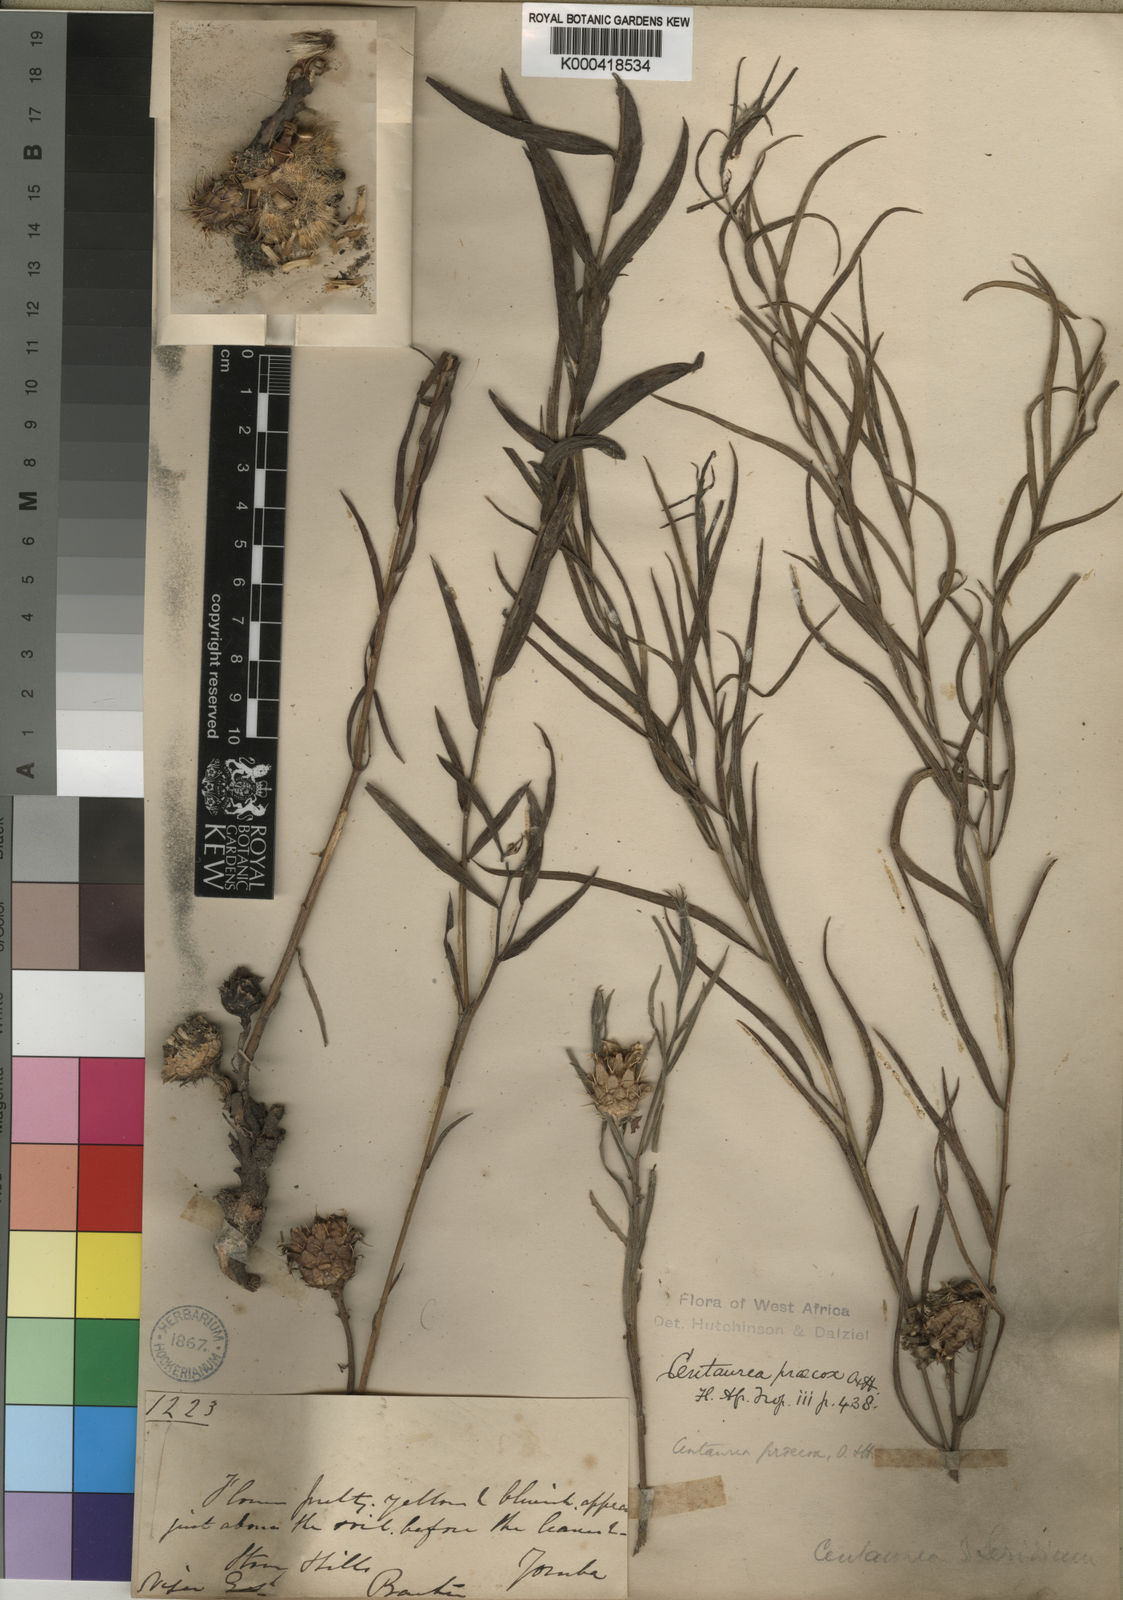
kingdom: Plantae
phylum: Tracheophyta
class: Magnoliopsida
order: Asterales
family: Asteraceae
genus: Centaurea
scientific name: Centaurea praecox
